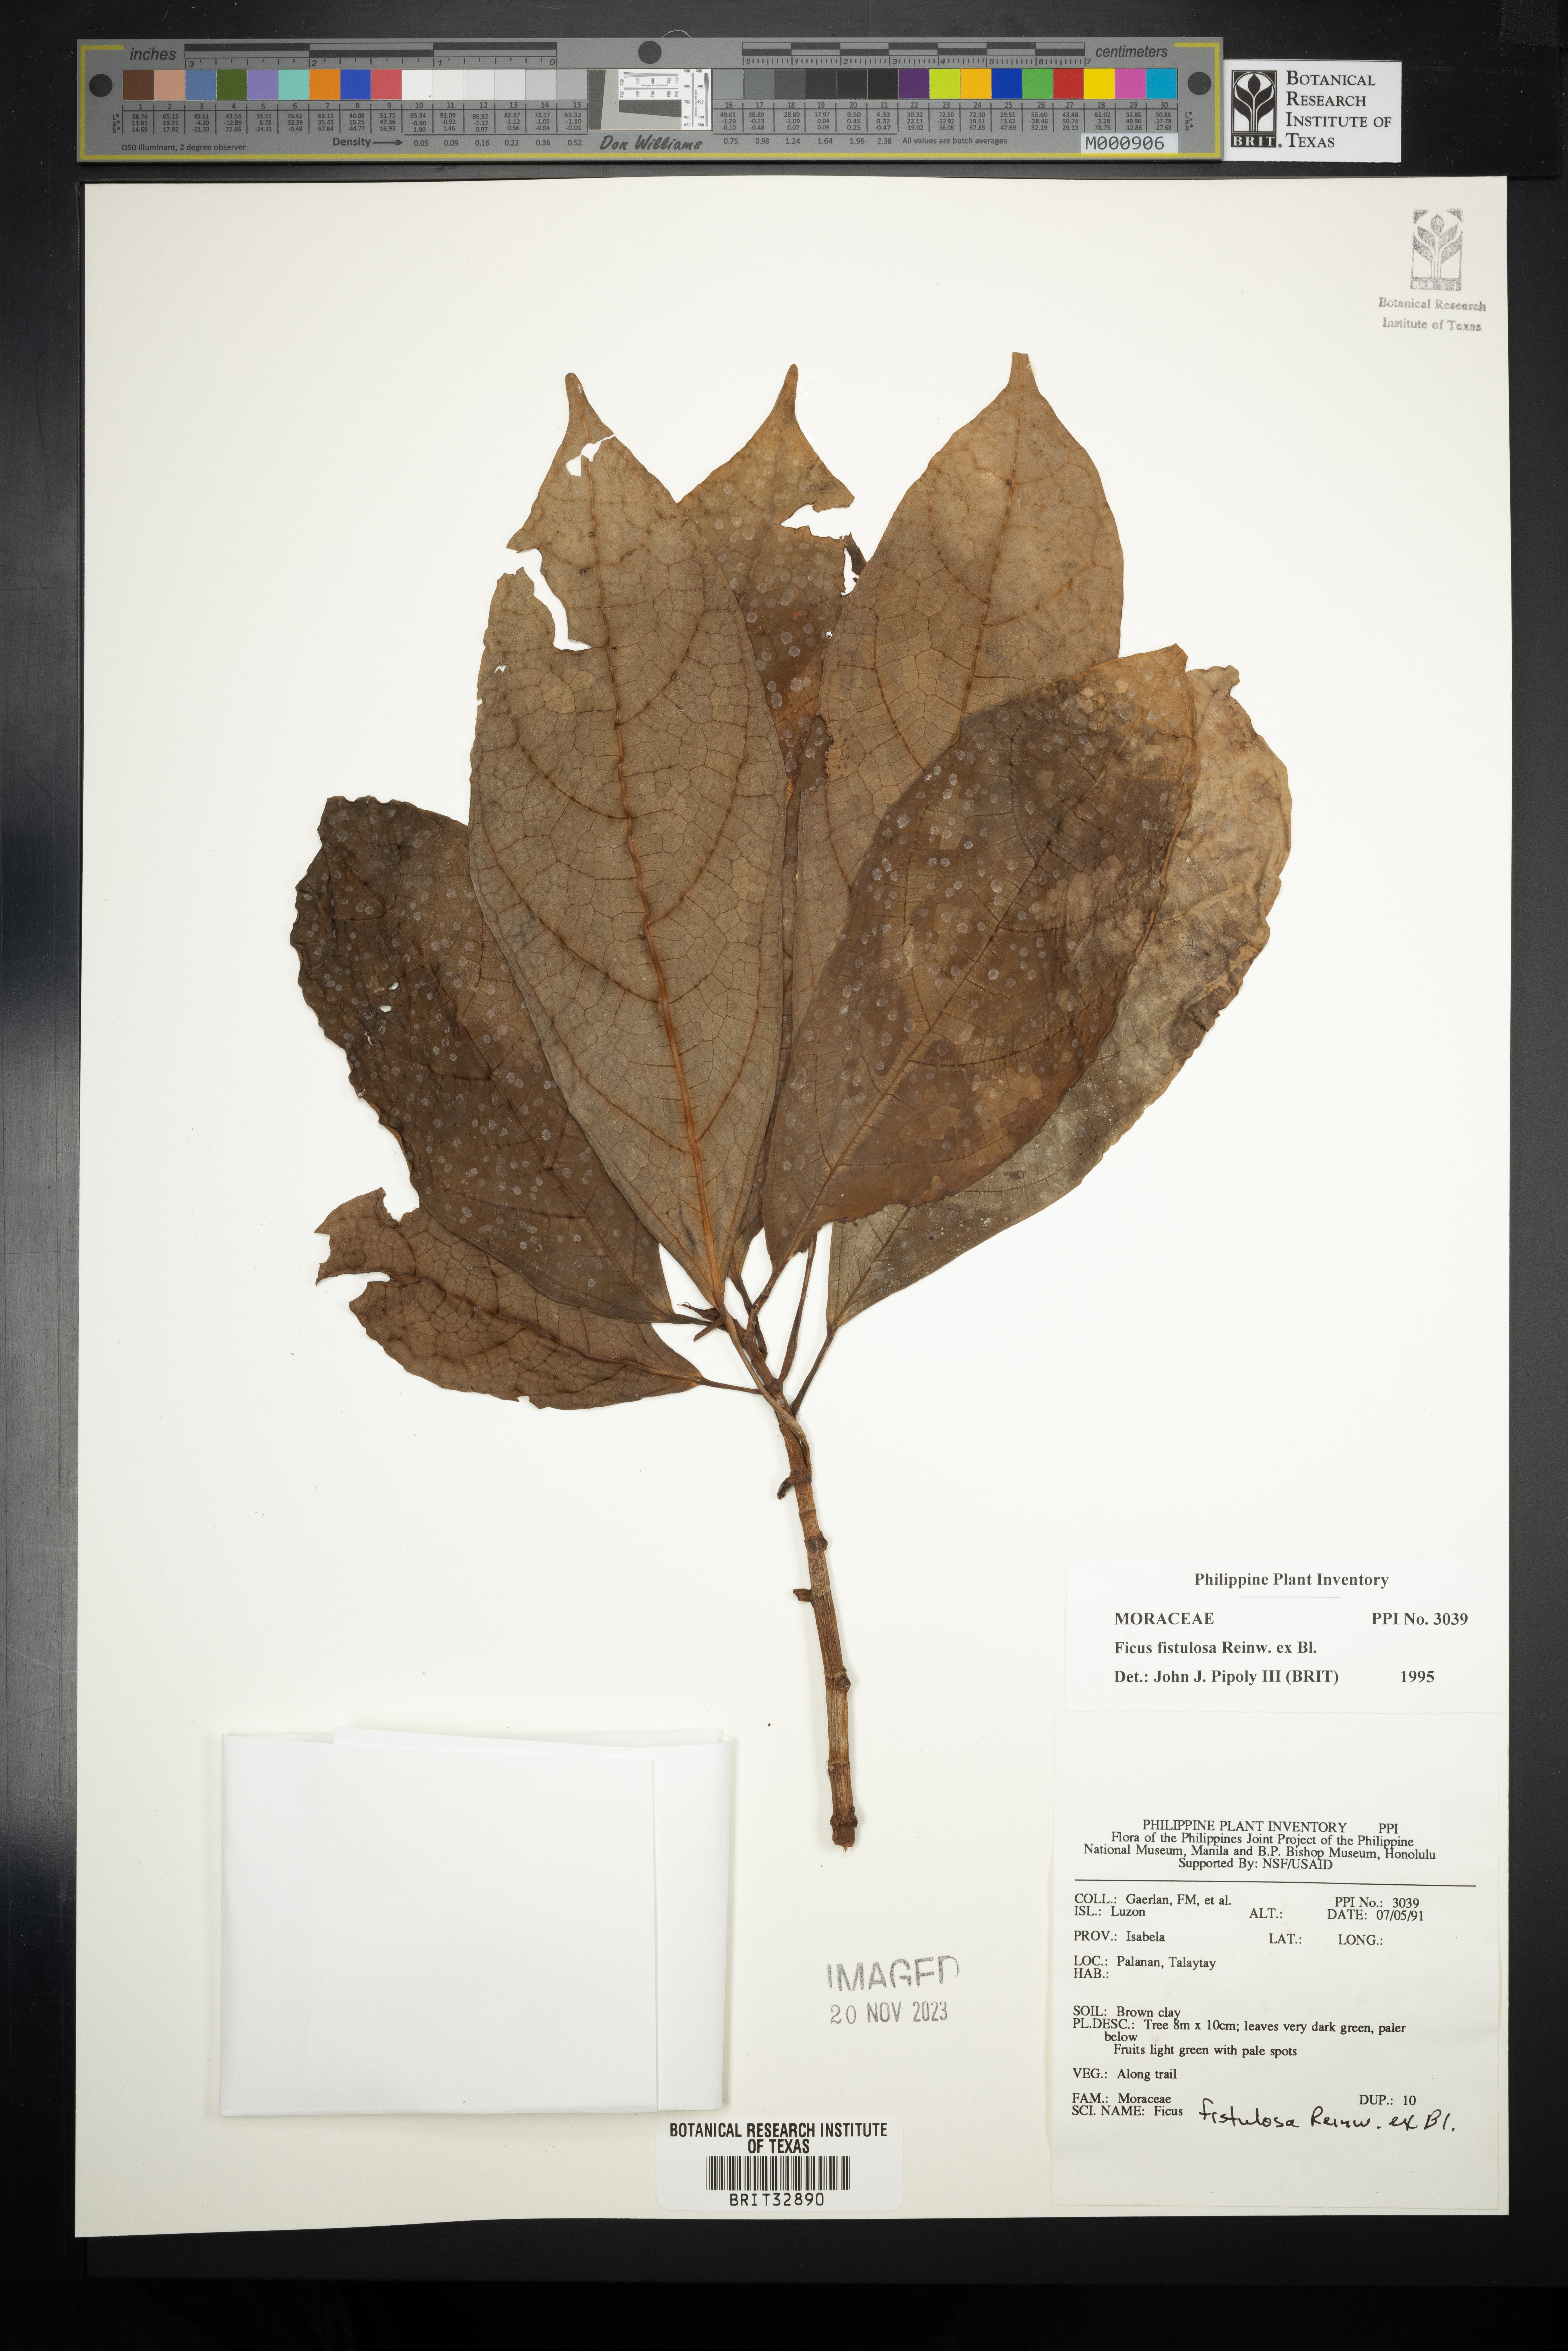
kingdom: Plantae
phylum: Tracheophyta
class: Magnoliopsida
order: Rosales
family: Moraceae
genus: Ficus
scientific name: Ficus fistulosa
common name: Figs
